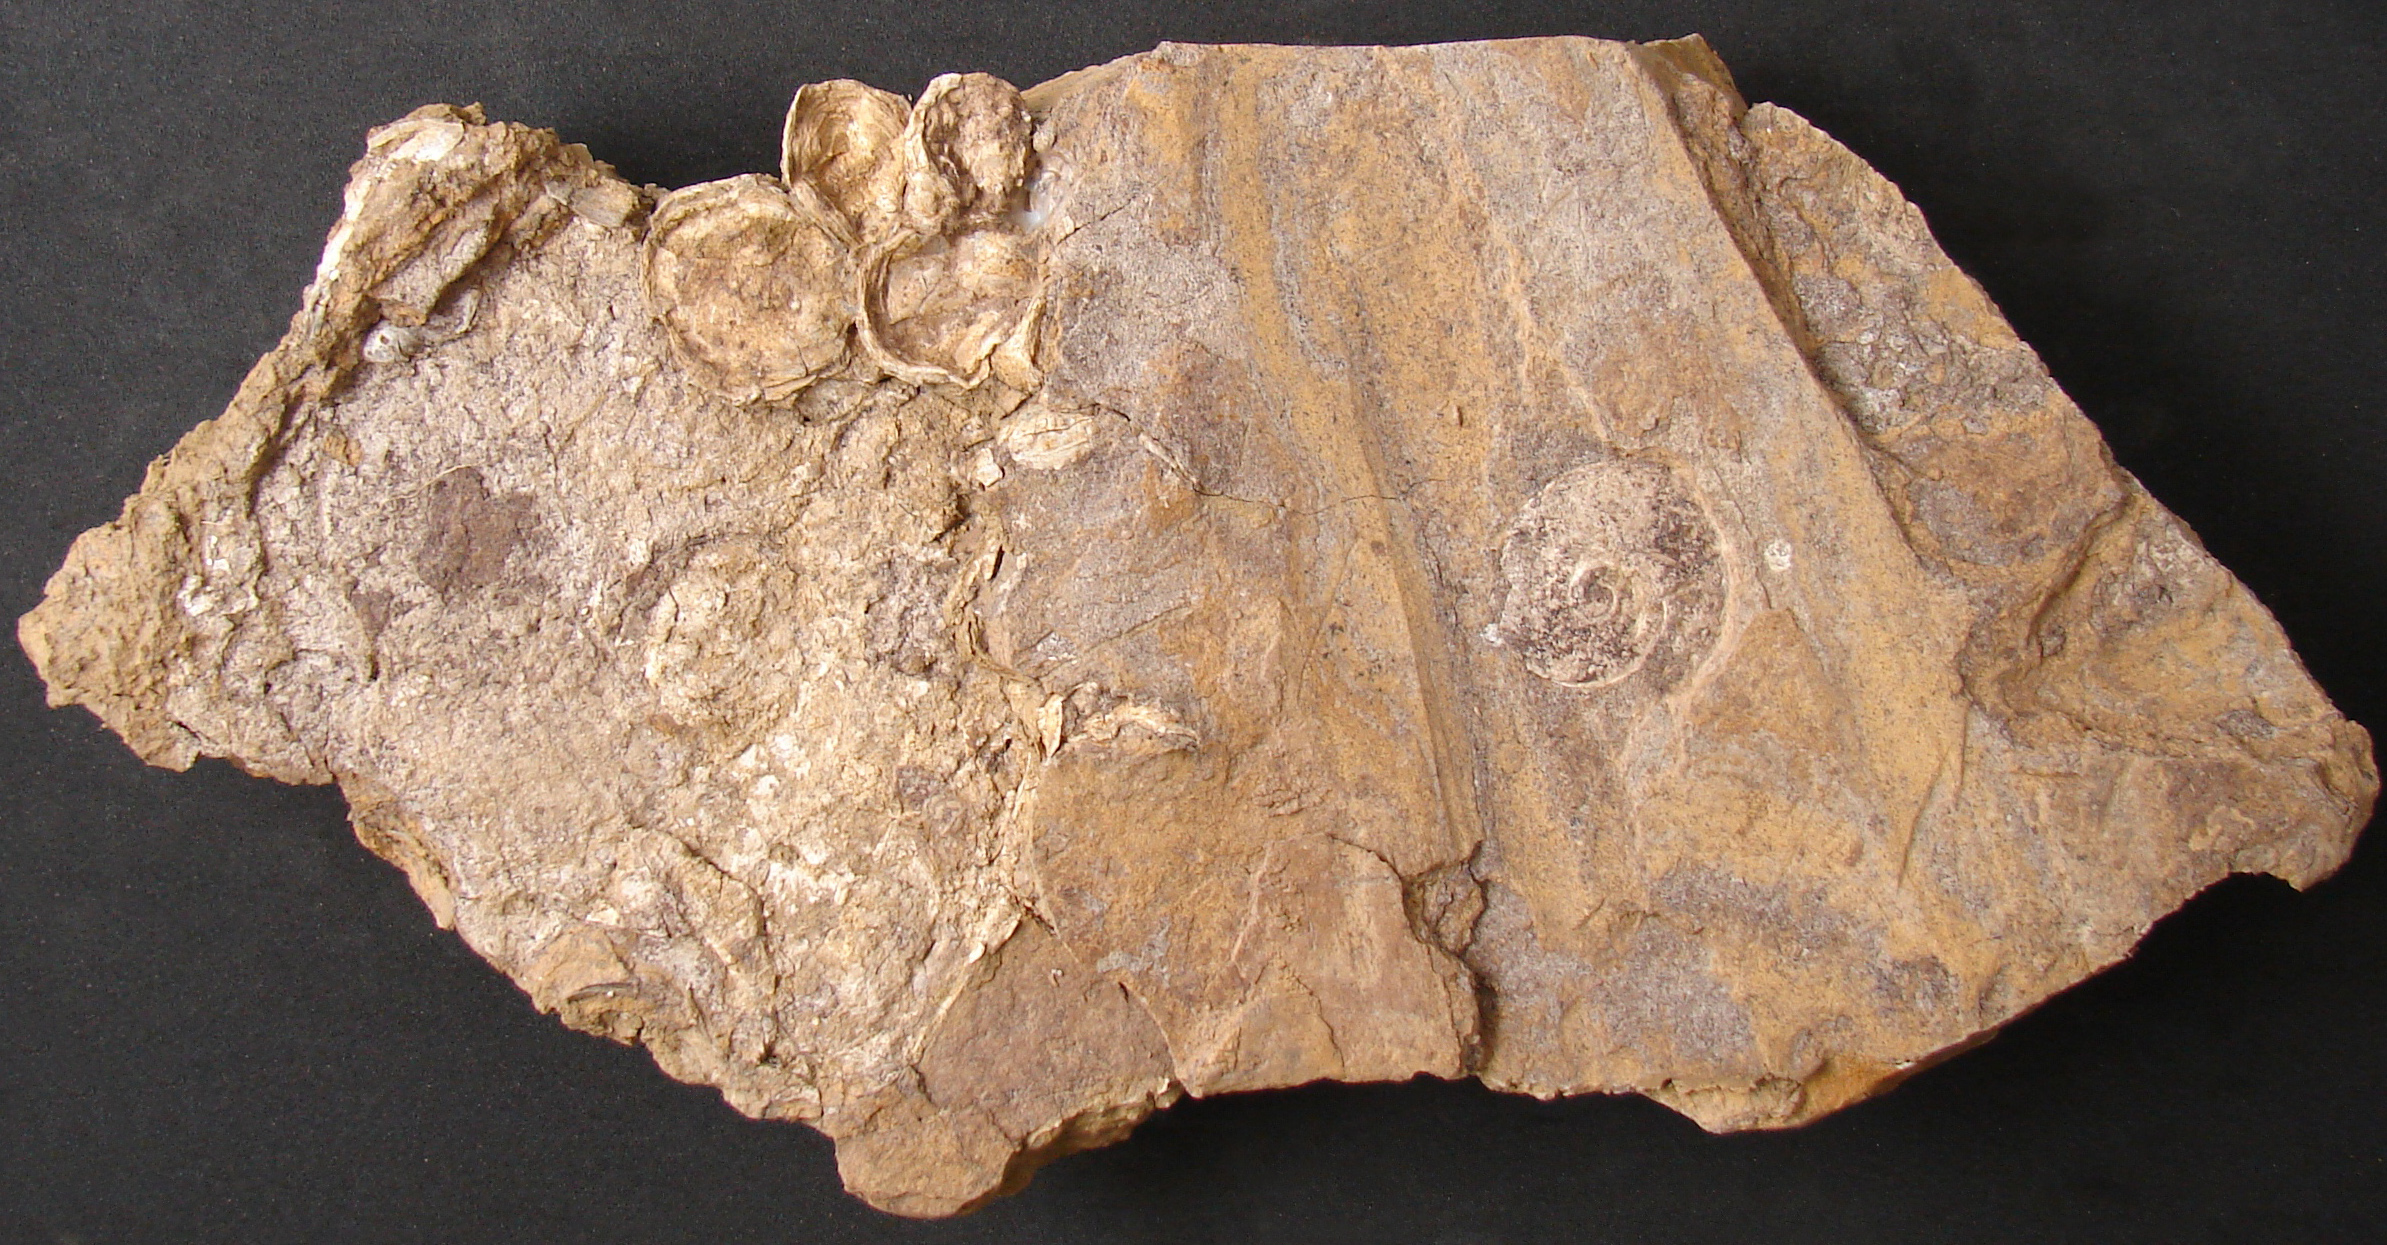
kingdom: Animalia
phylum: Mollusca
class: Bivalvia
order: Ostreida
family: Flemingostreidae
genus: Liostrea
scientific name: Liostrea
